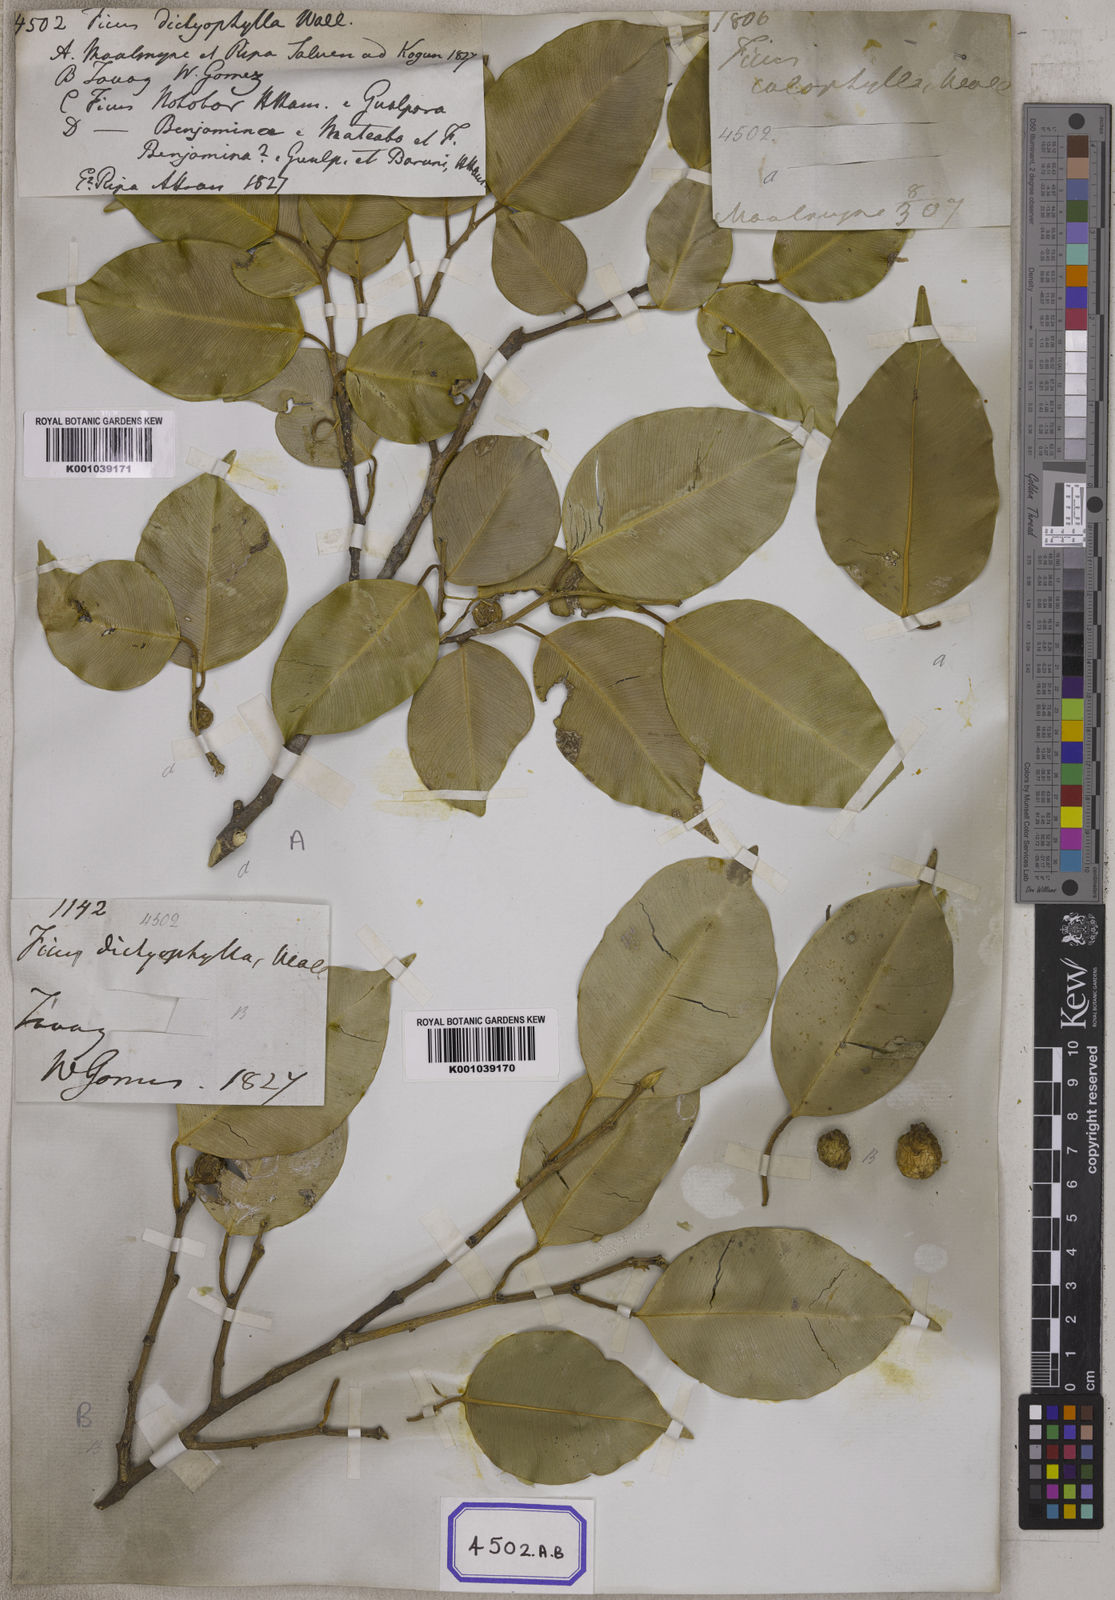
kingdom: Plantae
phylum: Tracheophyta
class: Magnoliopsida
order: Rosales
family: Moraceae
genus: Ficus
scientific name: Ficus benjamina
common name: Weeping fig
